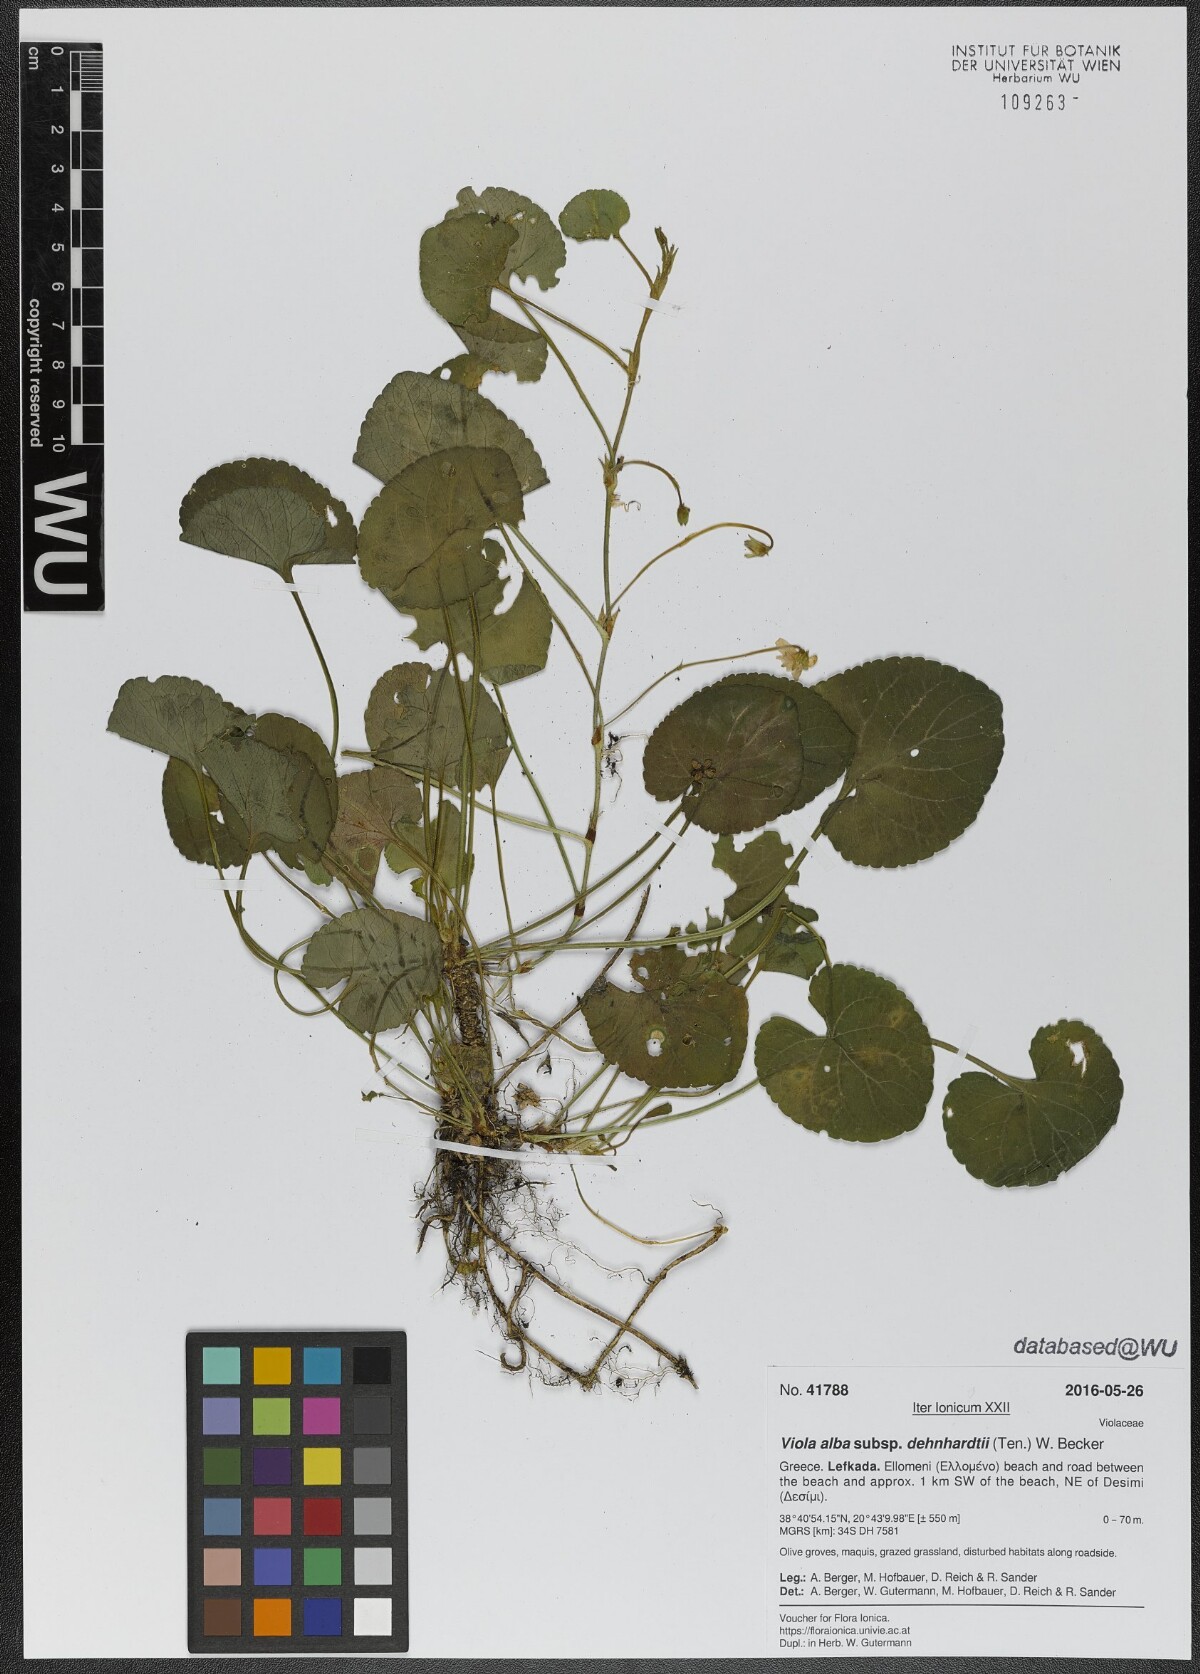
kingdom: Plantae
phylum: Tracheophyta
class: Magnoliopsida
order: Malpighiales
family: Violaceae
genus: Viola
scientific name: Viola alba
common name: White violet
